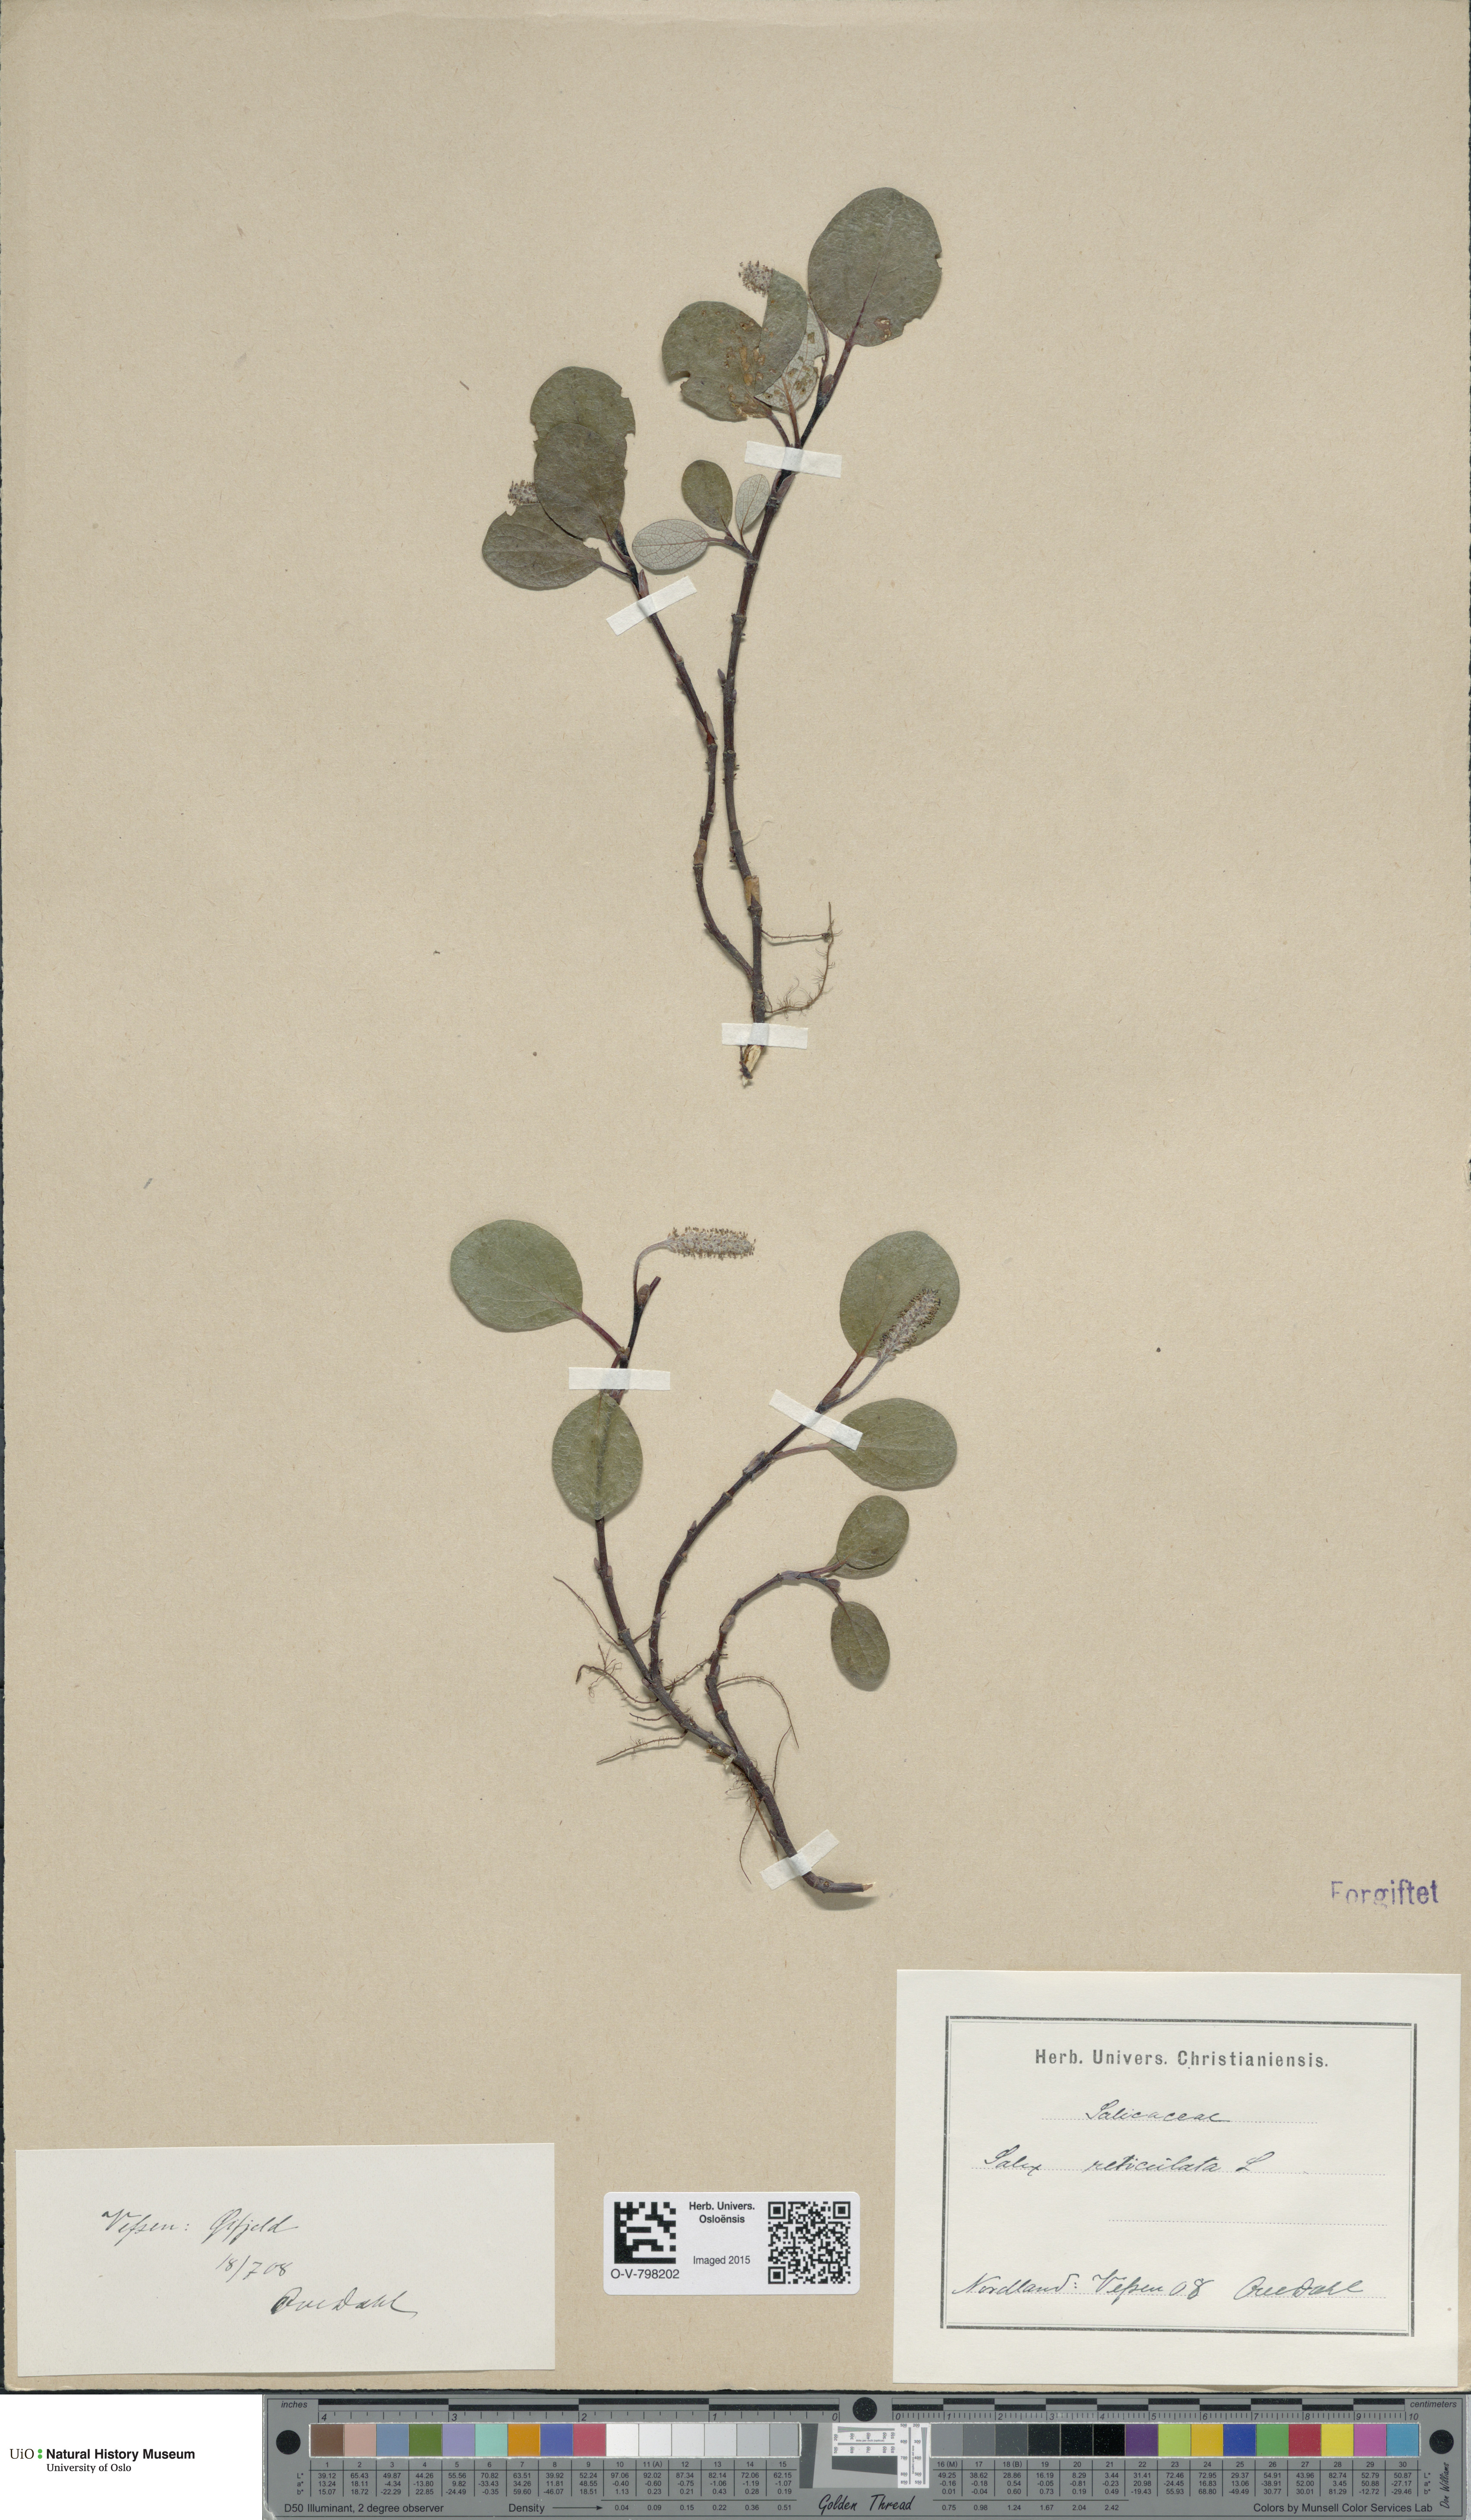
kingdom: Plantae
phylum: Tracheophyta
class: Magnoliopsida
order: Malpighiales
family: Salicaceae
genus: Salix
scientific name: Salix reticulata
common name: Net-leaved willow
